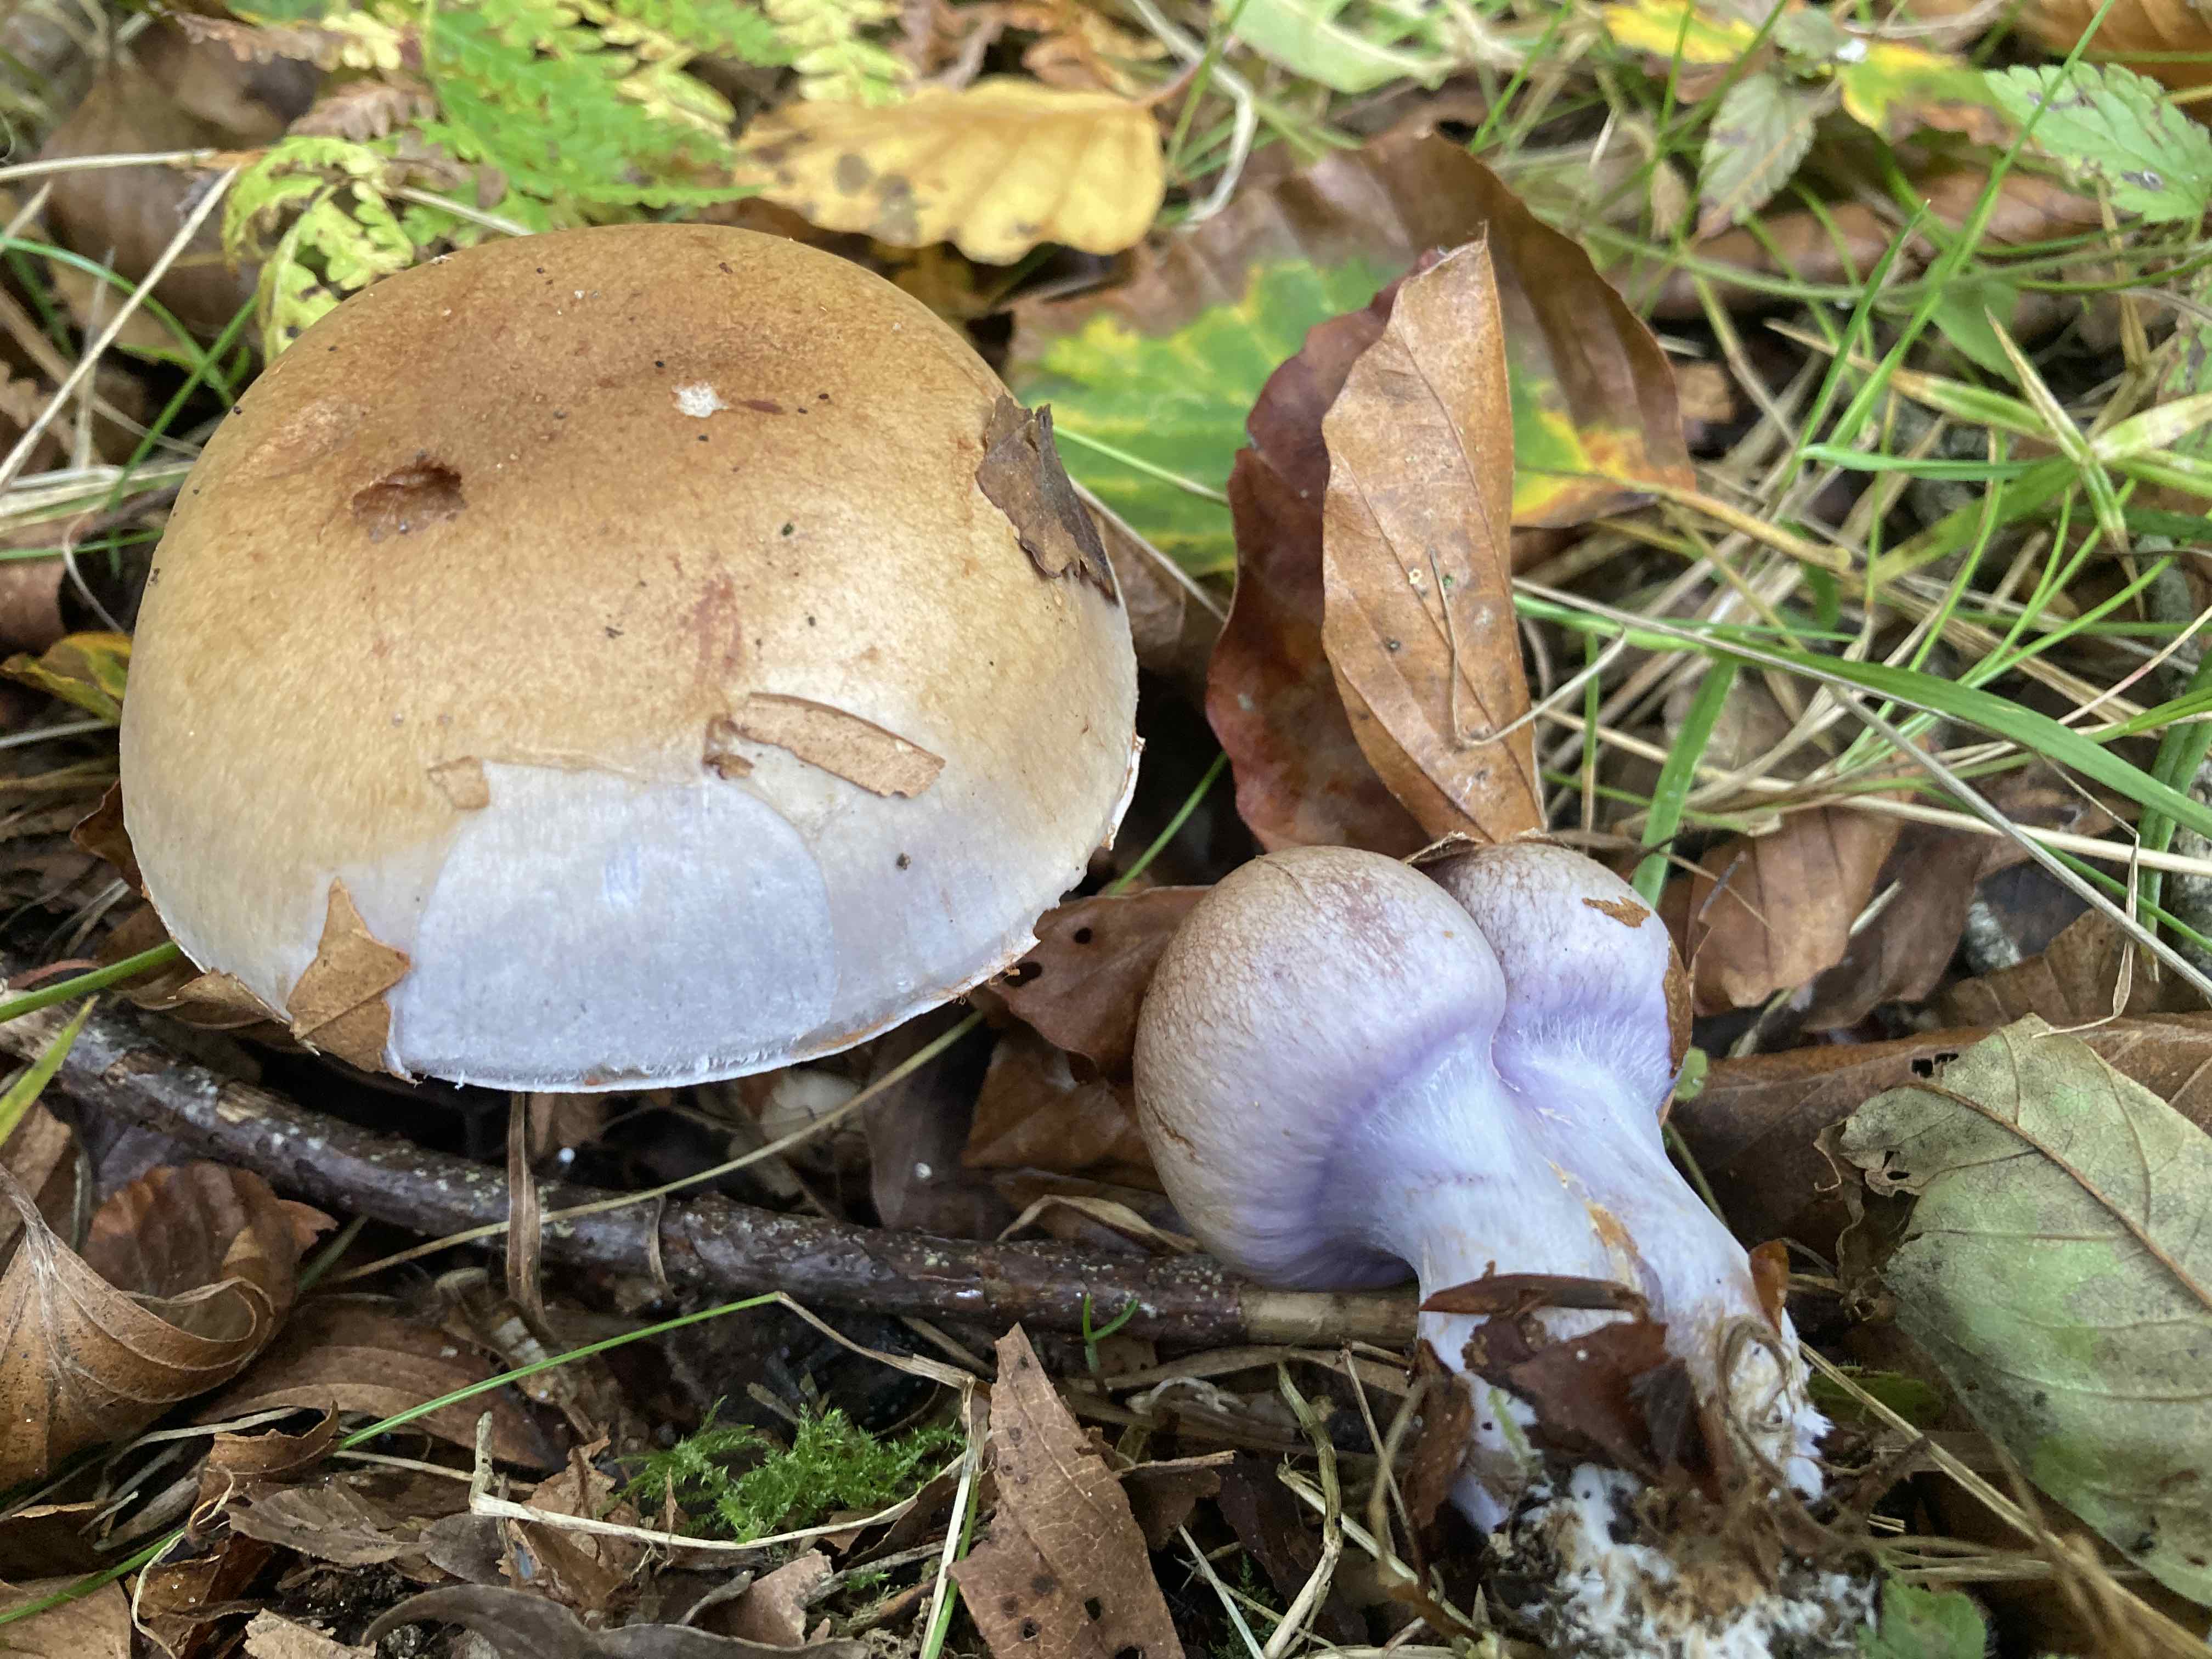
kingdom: Fungi
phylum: Basidiomycota
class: Agaricomycetes
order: Agaricales
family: Cortinariaceae
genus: Phlegmacium
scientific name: Phlegmacium pseudodaulnoyae
